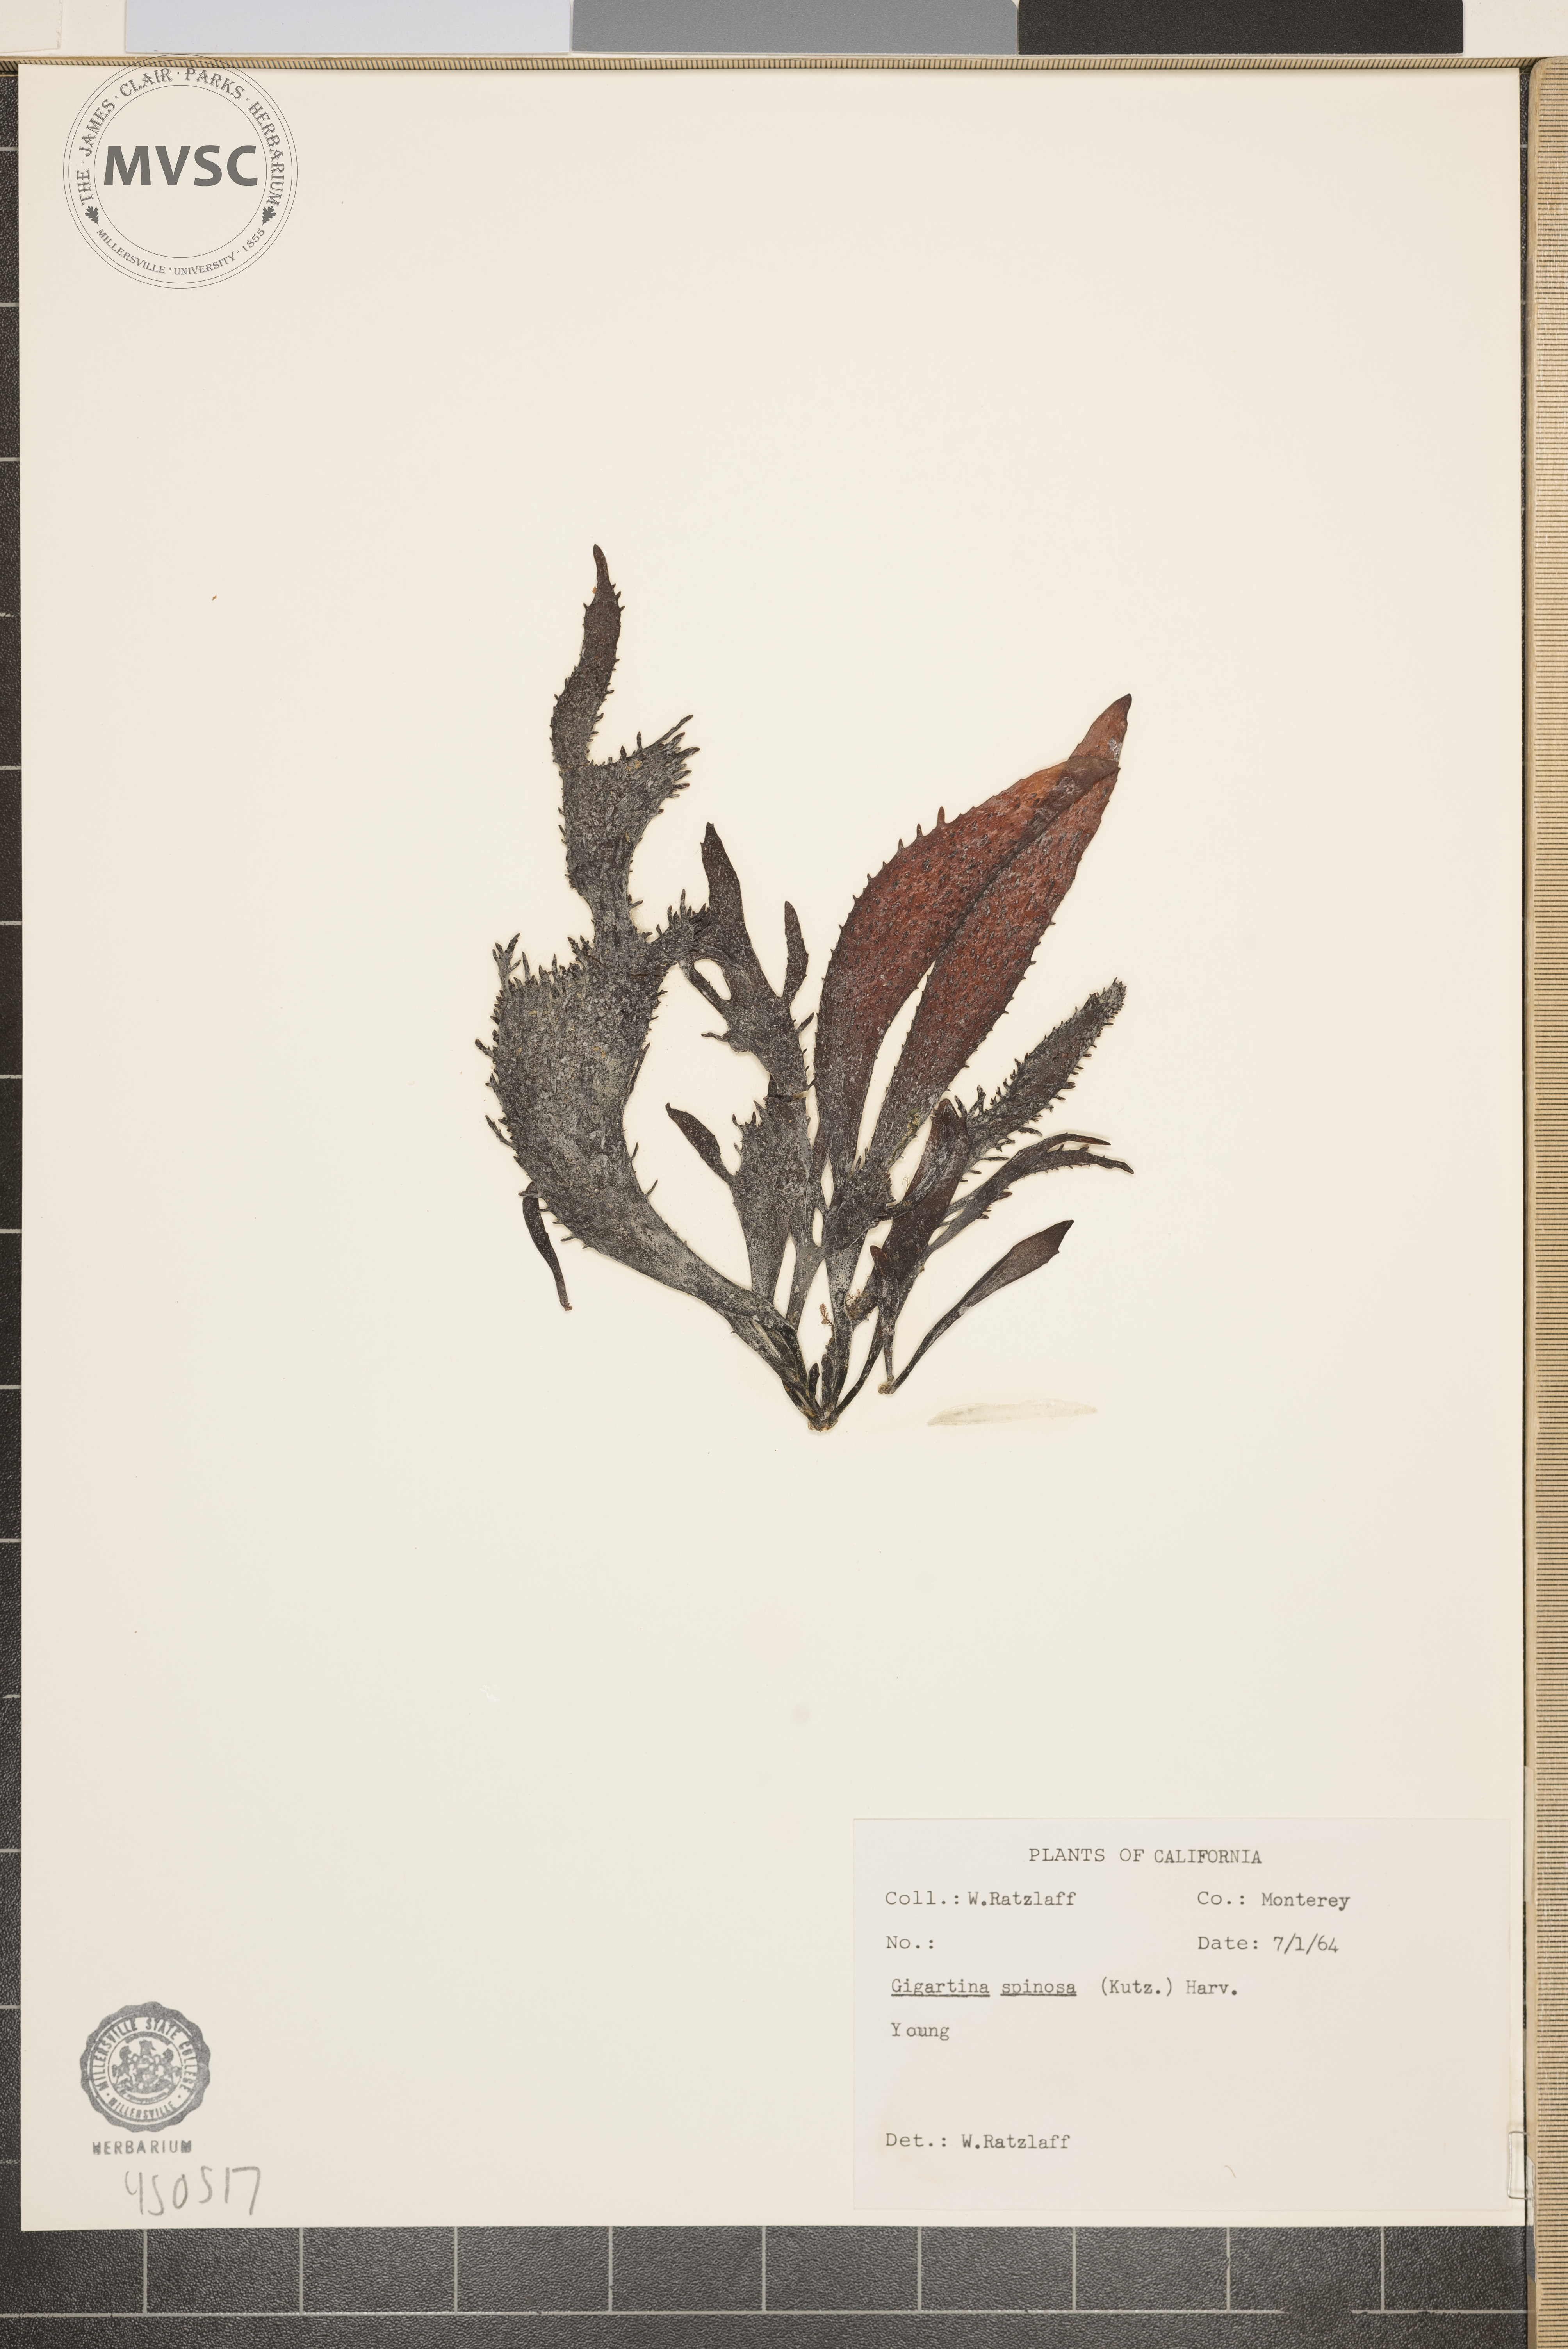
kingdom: Plantae
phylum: Rhodophyta
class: Florideophyceae
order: Gigartinales
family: Gigartinaceae
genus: Chondracanthus
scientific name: Chondracanthus spinosus
